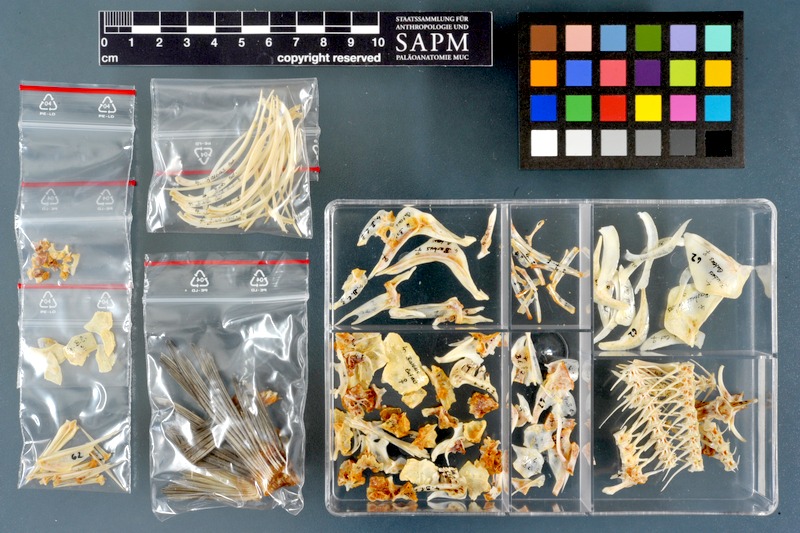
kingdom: Animalia
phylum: Chordata
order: Cypriniformes
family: Cyprinidae
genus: Carasobarbus
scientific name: Carasobarbus luteus
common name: Mesopotamian himri
